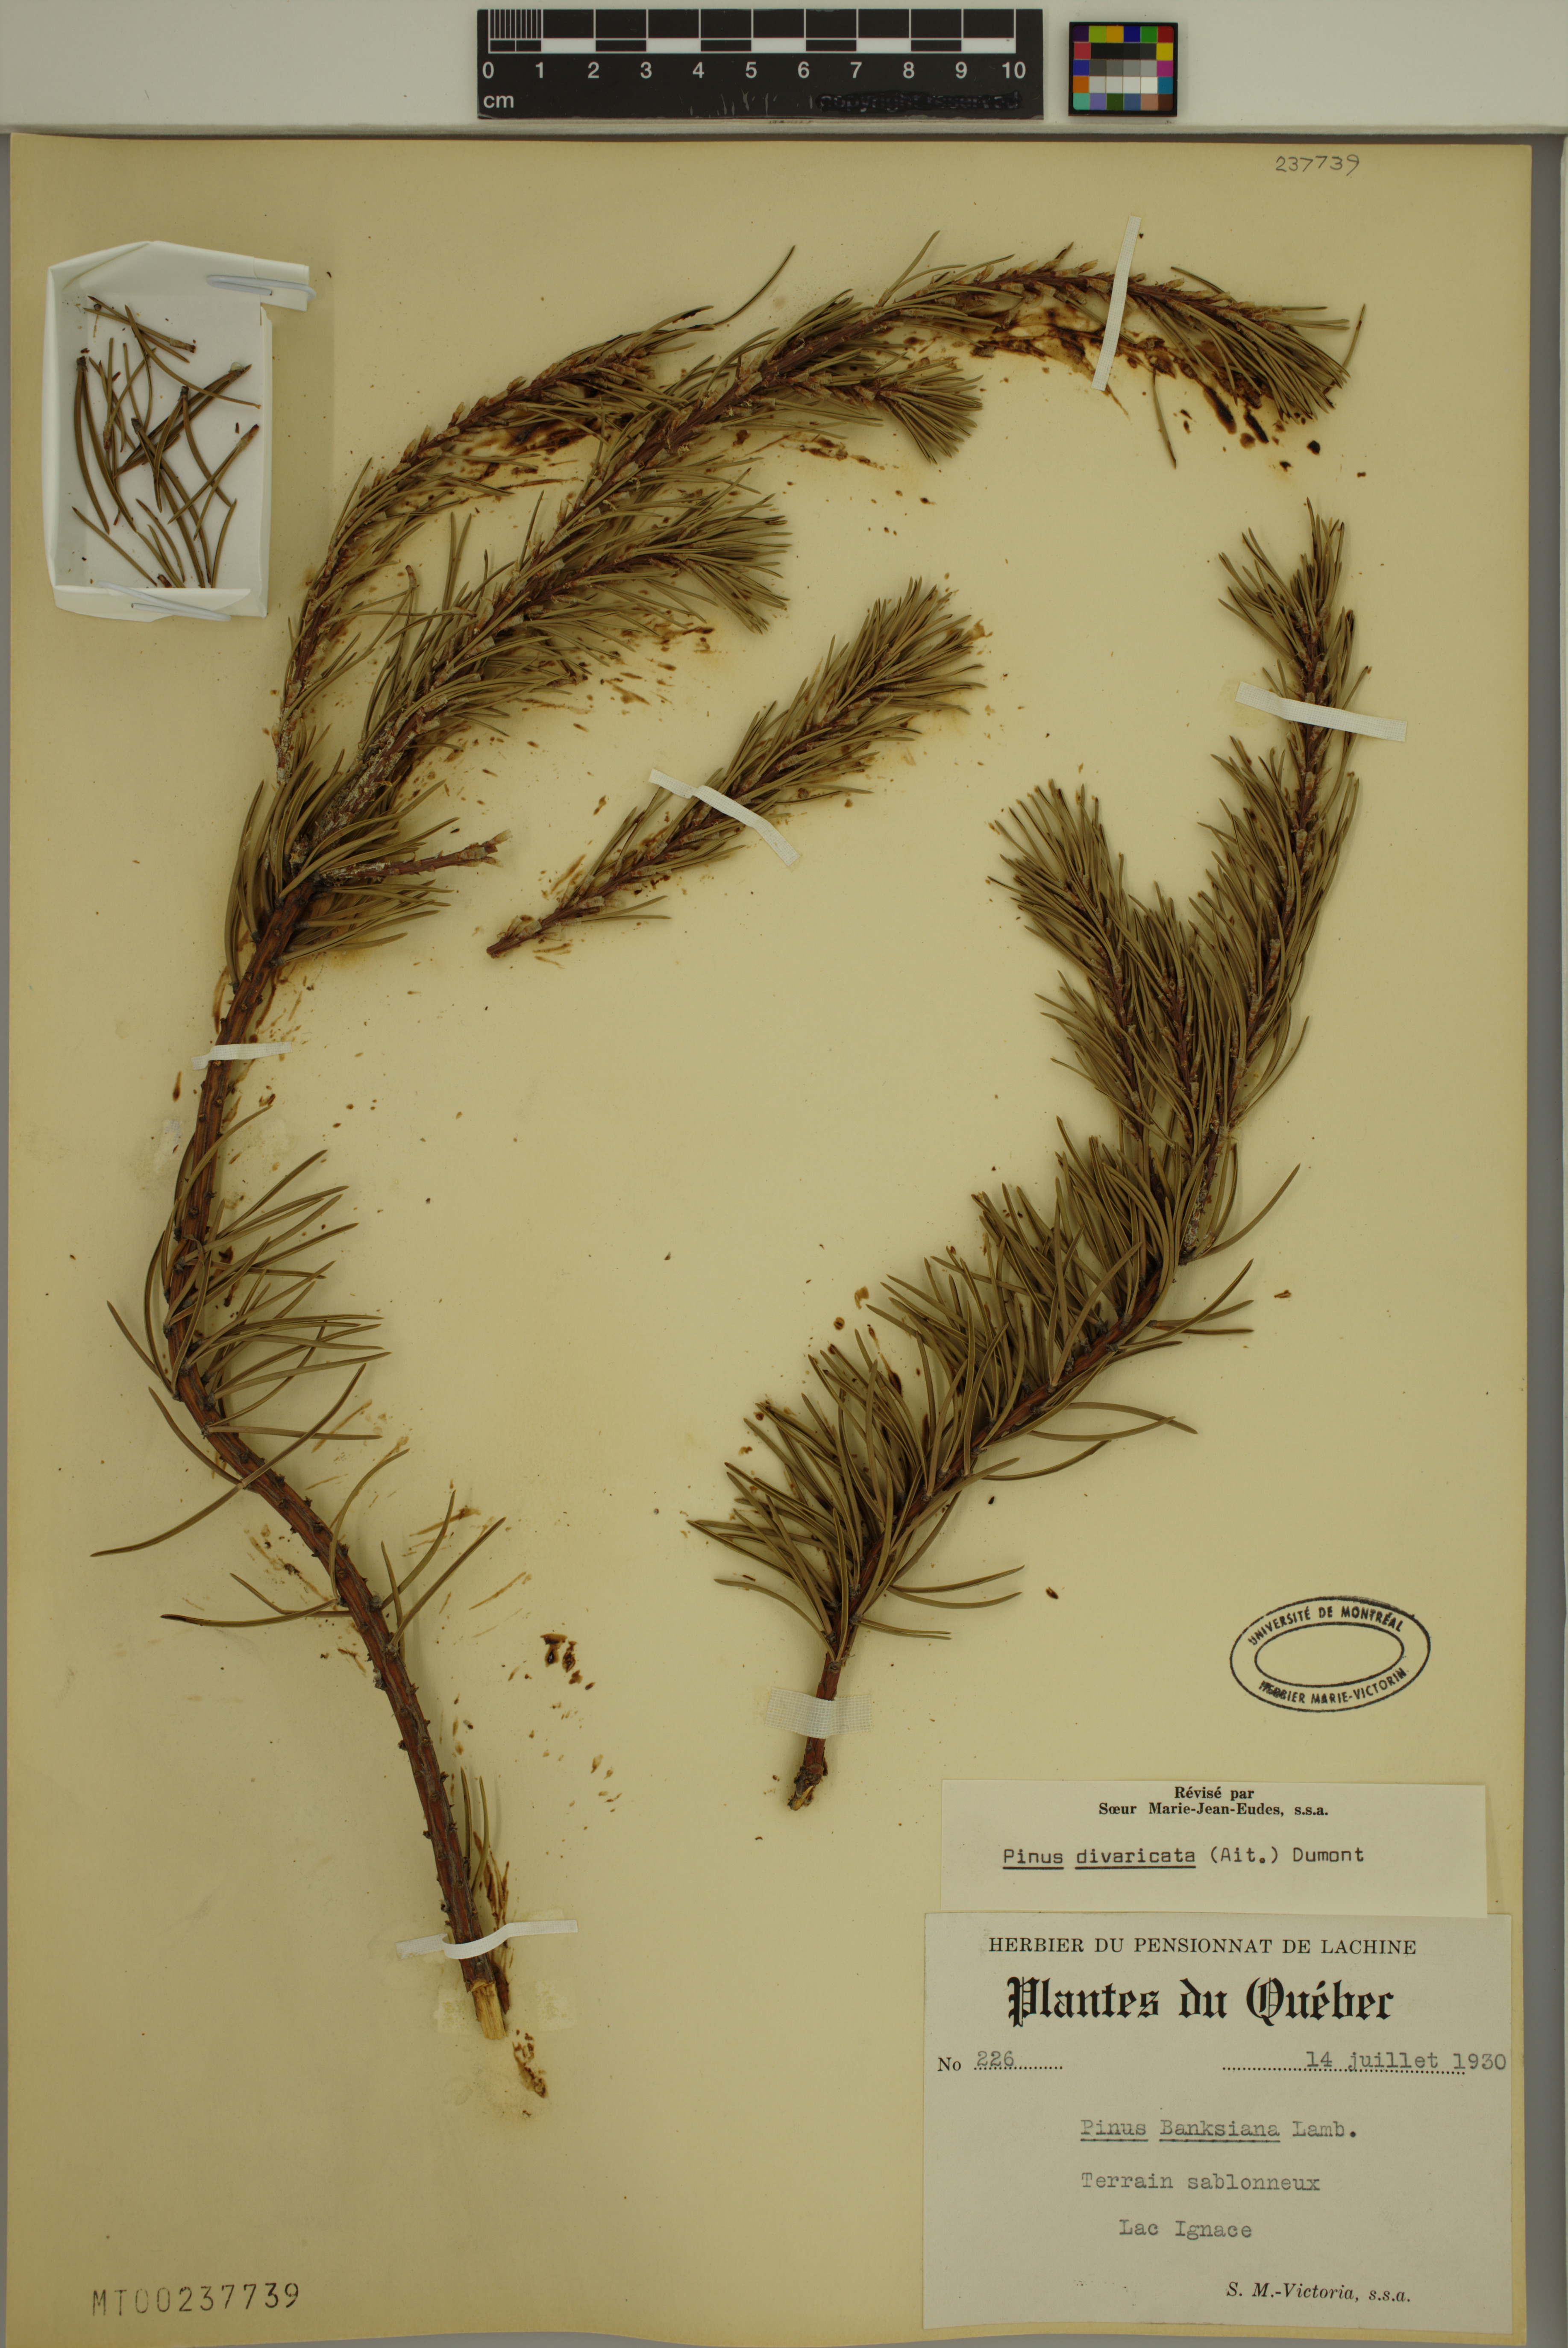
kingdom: Plantae
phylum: Tracheophyta
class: Pinopsida
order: Pinales
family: Pinaceae
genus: Pinus
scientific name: Pinus banksiana
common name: Jack pine
